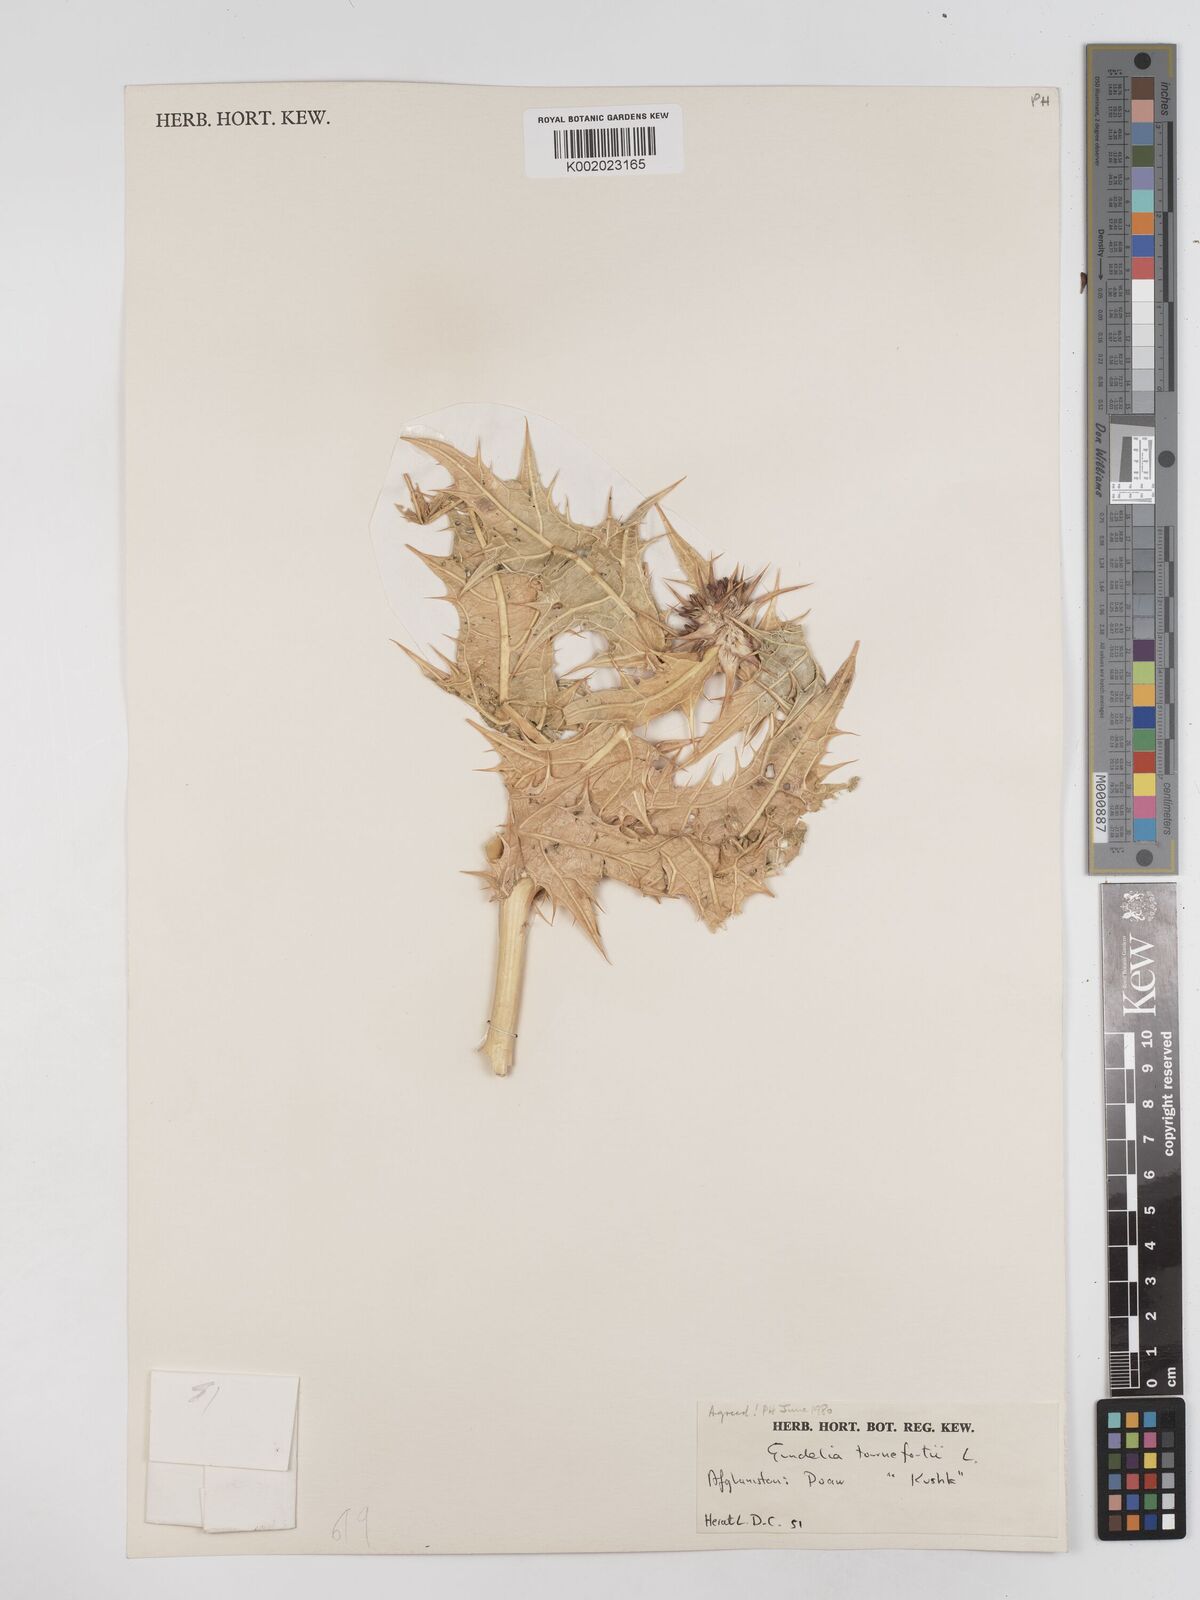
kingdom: Plantae
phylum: Tracheophyta
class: Magnoliopsida
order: Asterales
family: Asteraceae
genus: Gundelia
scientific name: Gundelia tournefortii
